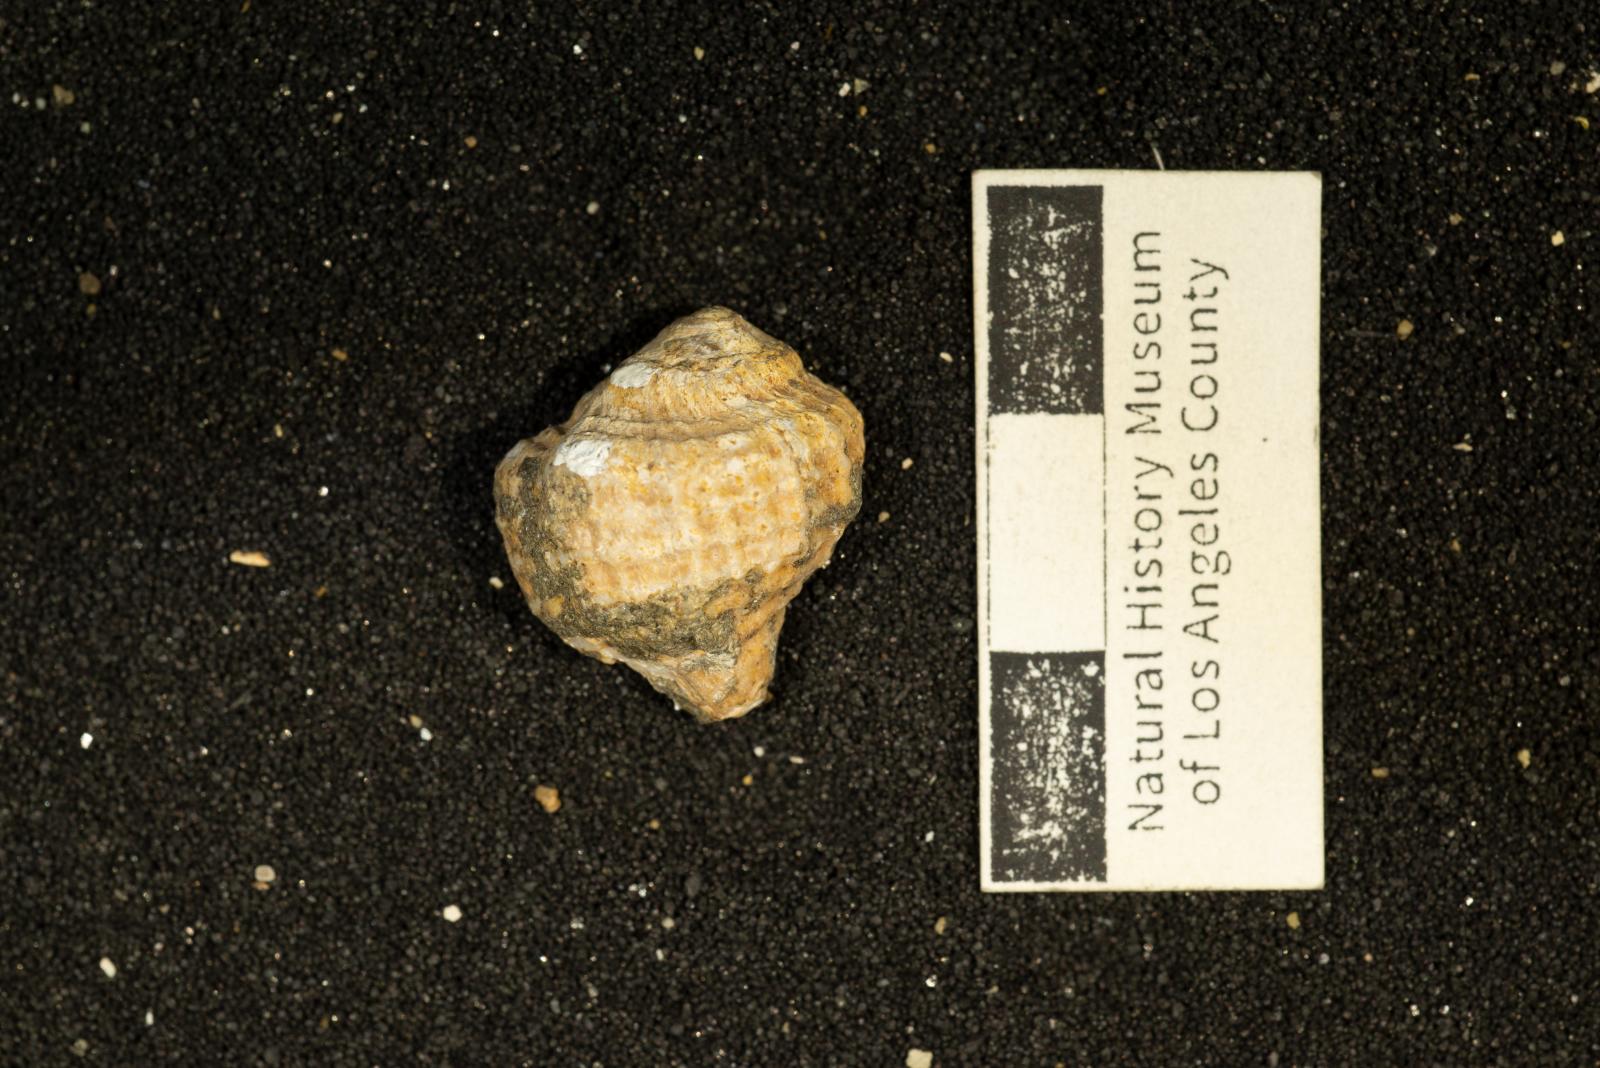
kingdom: Animalia
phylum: Mollusca
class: Gastropoda
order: Neogastropoda
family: Sarganidae
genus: Praesargana
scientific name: Praesargana Trophon condoni
